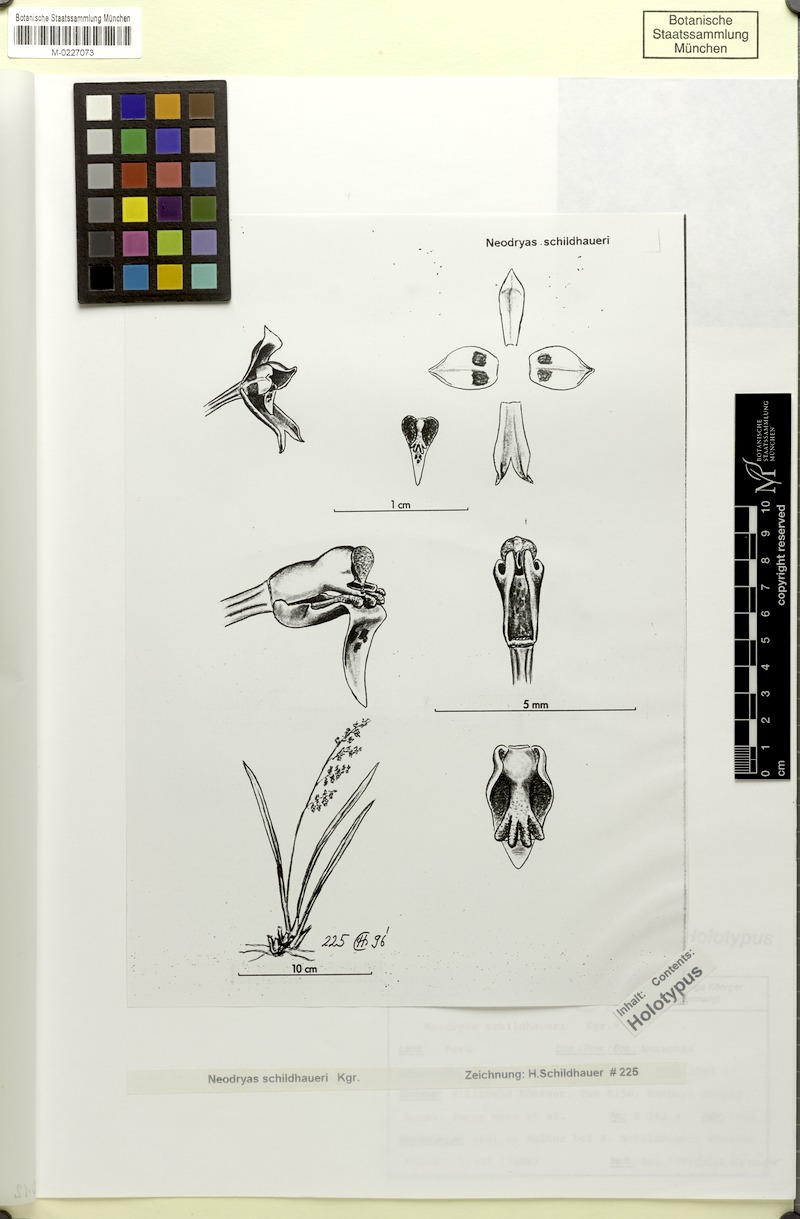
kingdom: Plantae
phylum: Tracheophyta
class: Liliopsida
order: Asparagales
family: Orchidaceae
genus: Cyrtochilum
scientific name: Cyrtochilum schildhaueri
